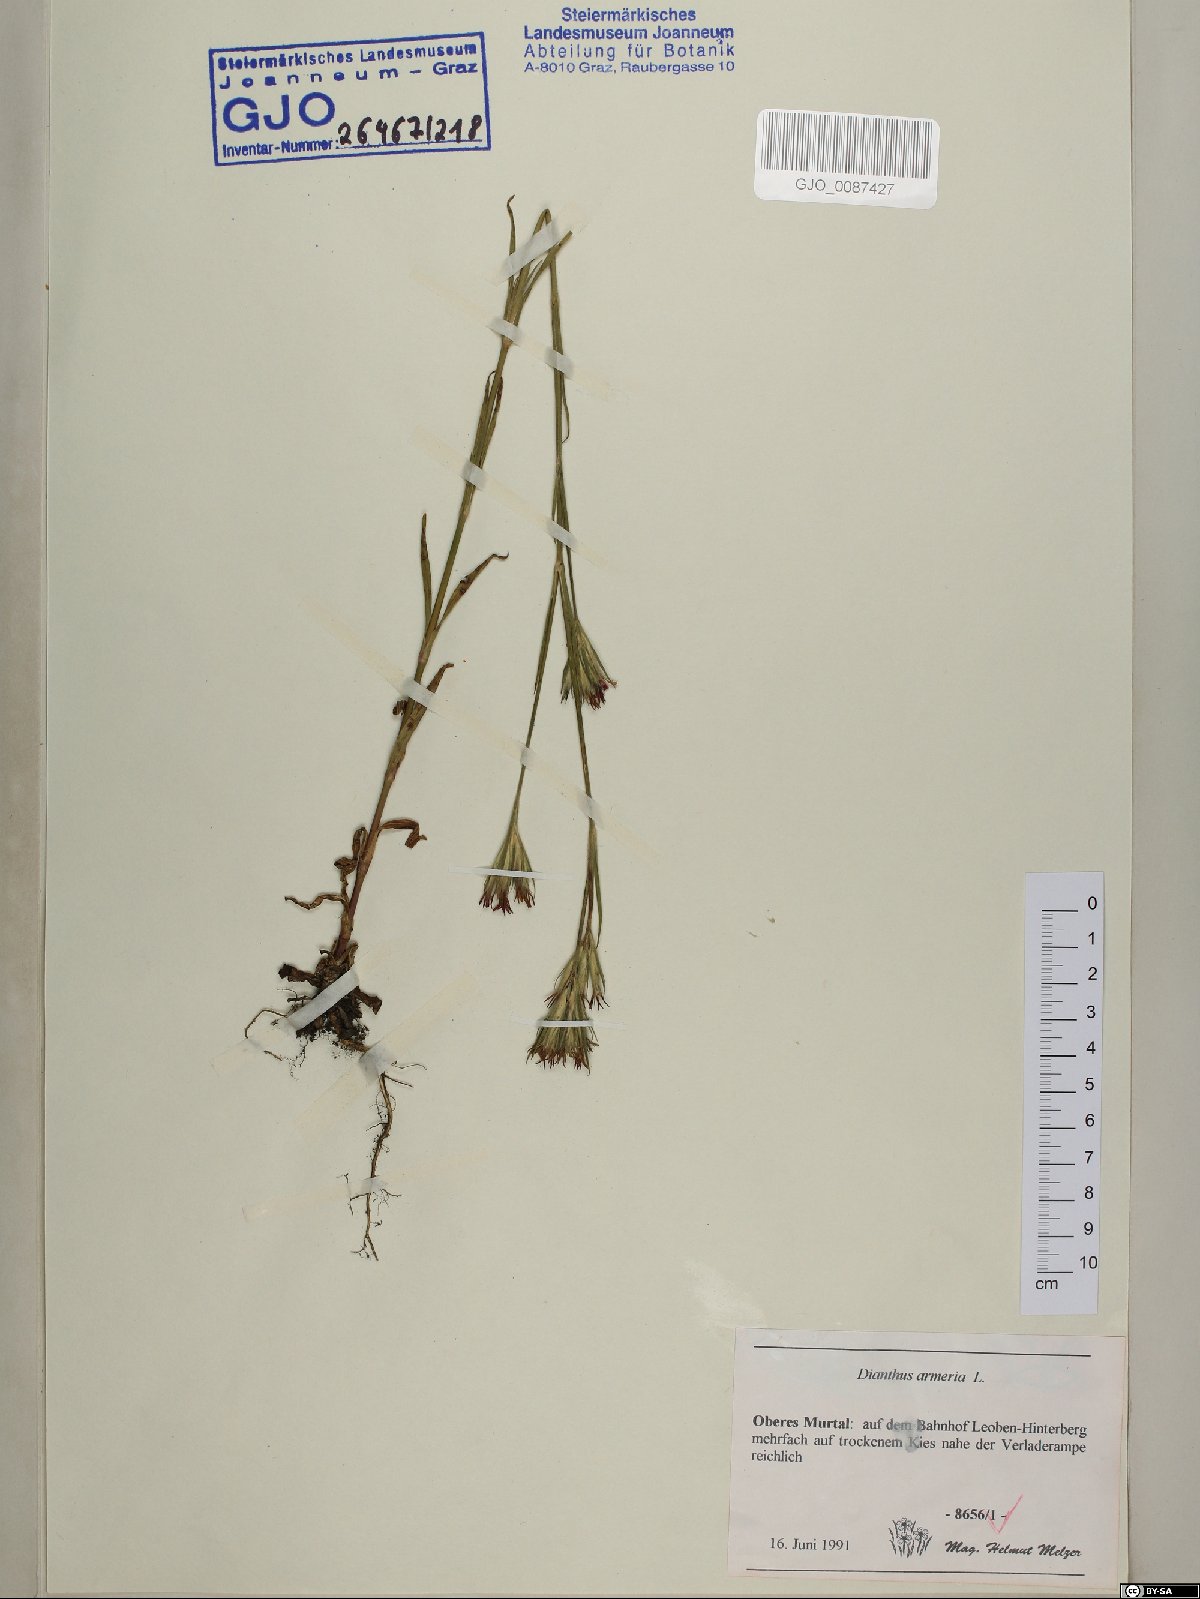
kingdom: Plantae
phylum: Tracheophyta
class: Magnoliopsida
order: Caryophyllales
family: Caryophyllaceae
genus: Dianthus
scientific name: Dianthus armeria
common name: Deptford pink
